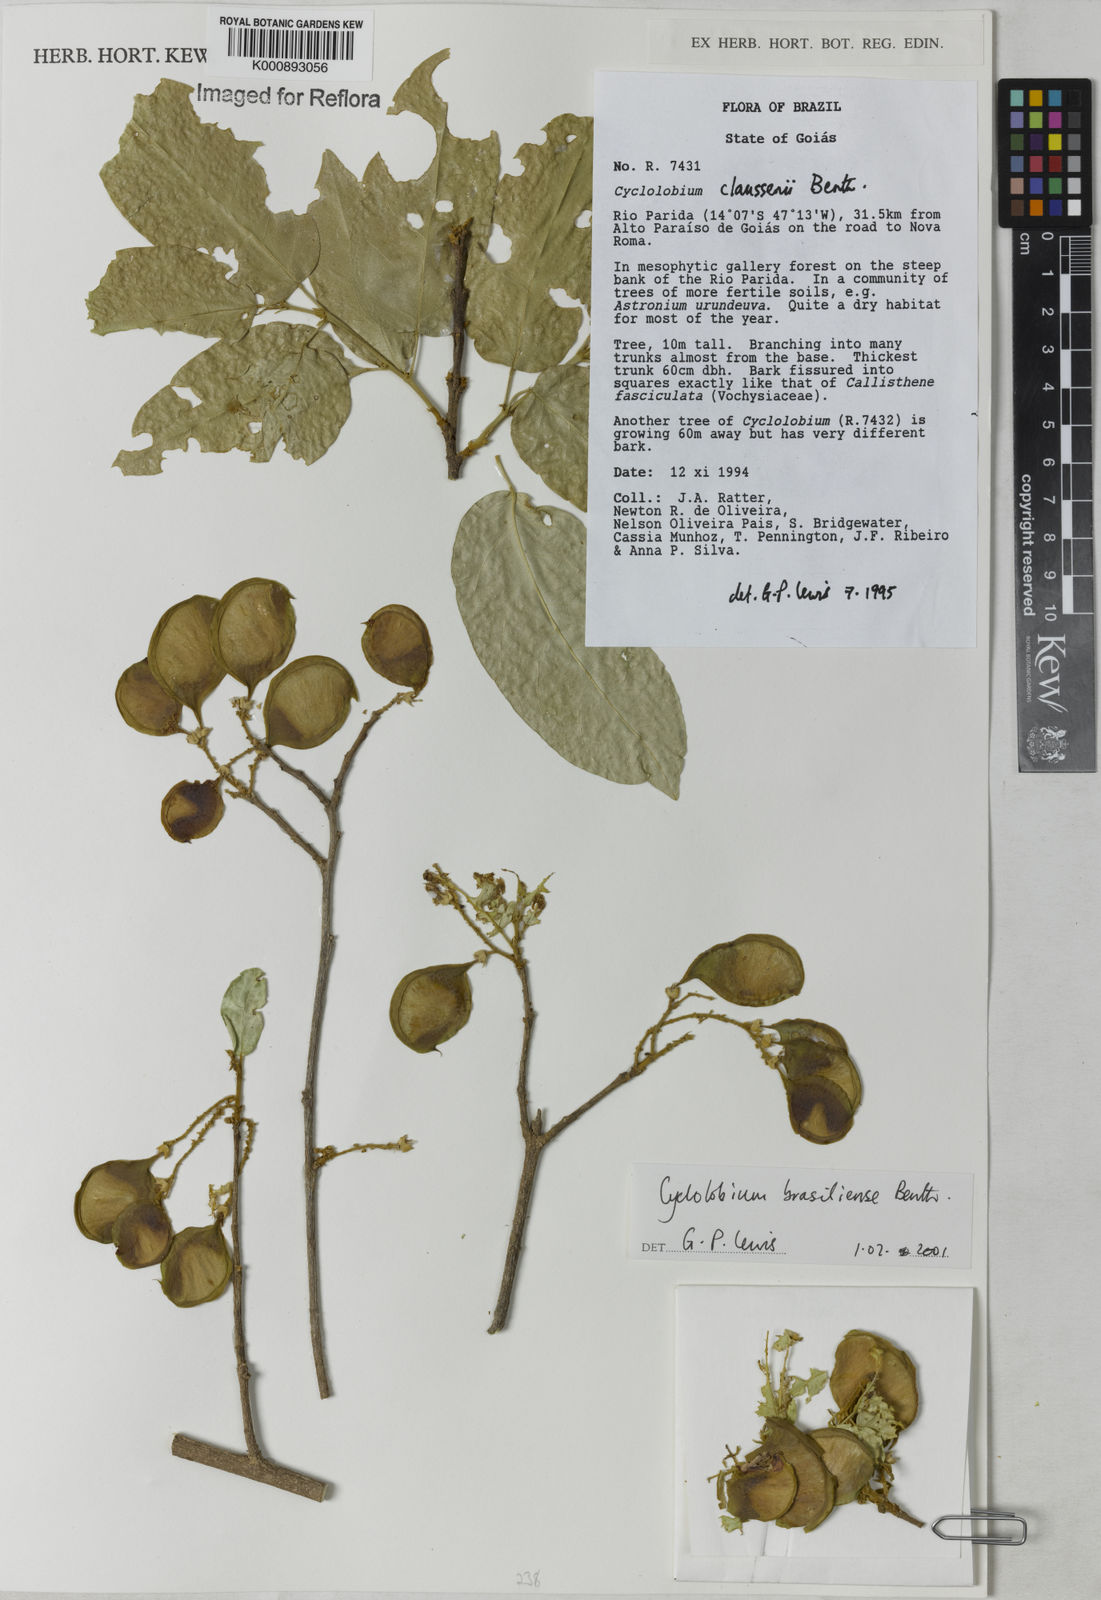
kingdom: Plantae
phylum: Tracheophyta
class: Magnoliopsida
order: Fabales
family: Fabaceae
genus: Cyclolobium
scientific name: Cyclolobium brasiliense
